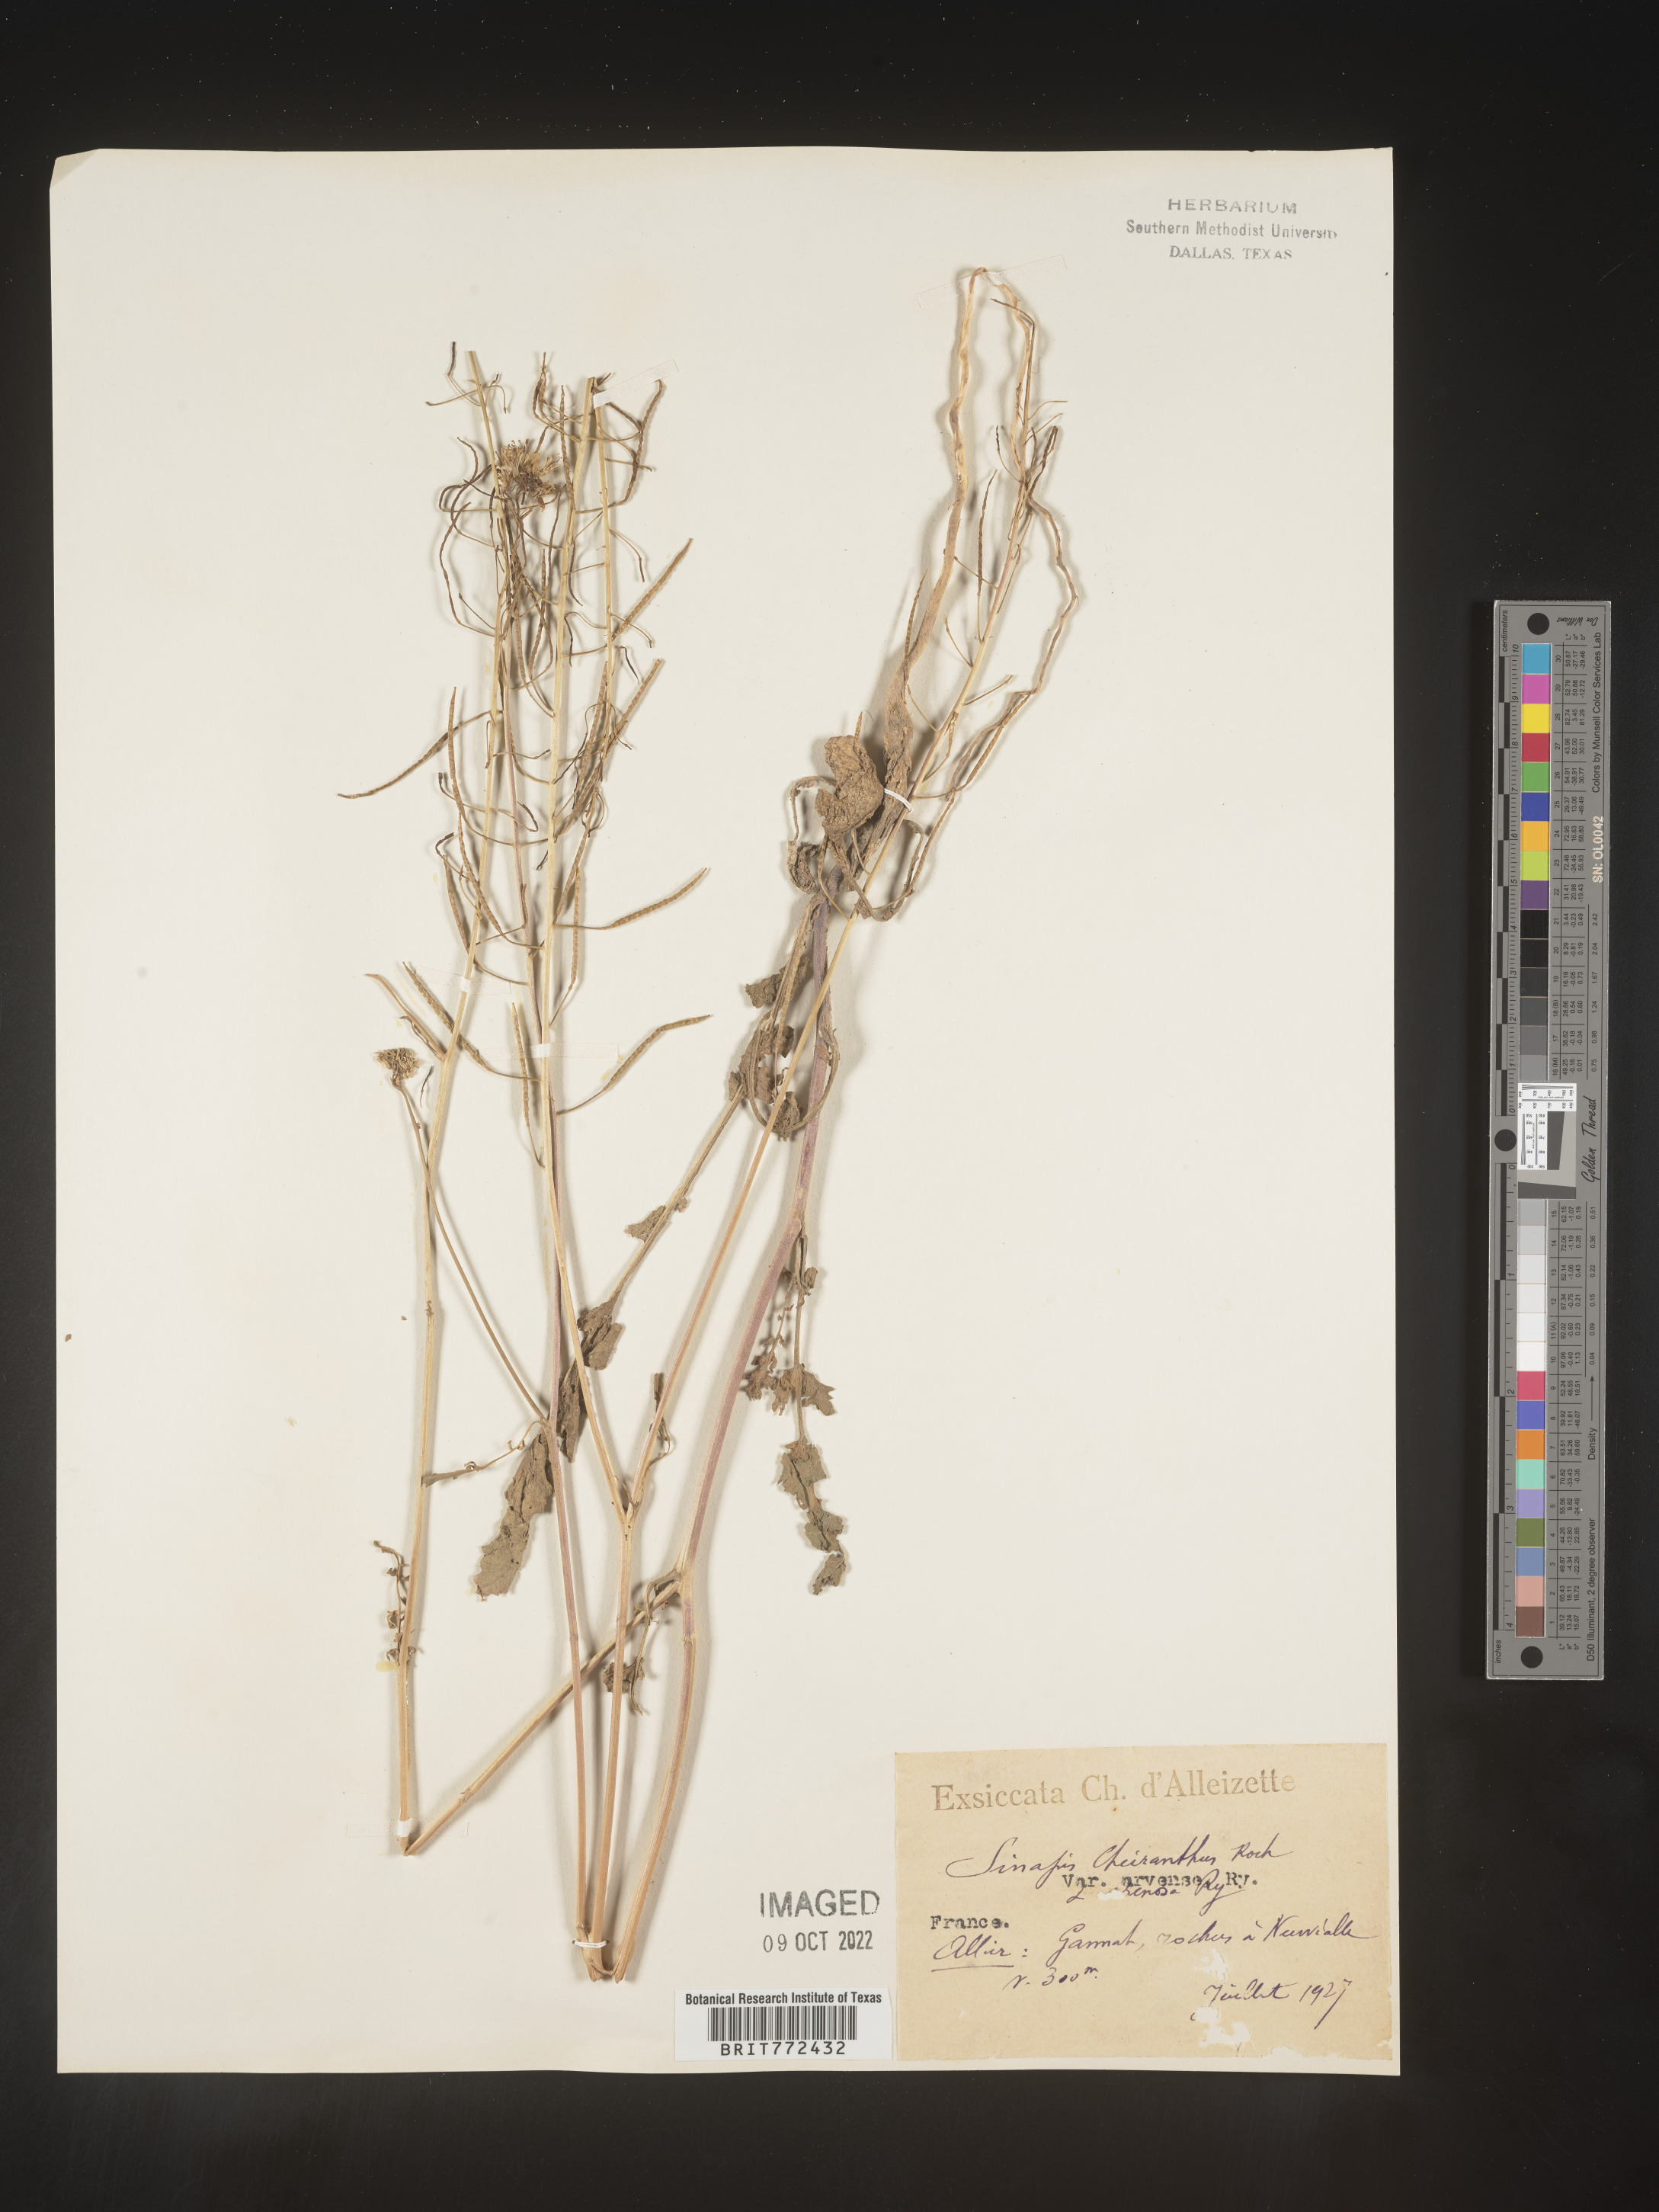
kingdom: Plantae
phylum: Tracheophyta
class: Magnoliopsida
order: Brassicales
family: Brassicaceae
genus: Brassica
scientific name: Brassica
